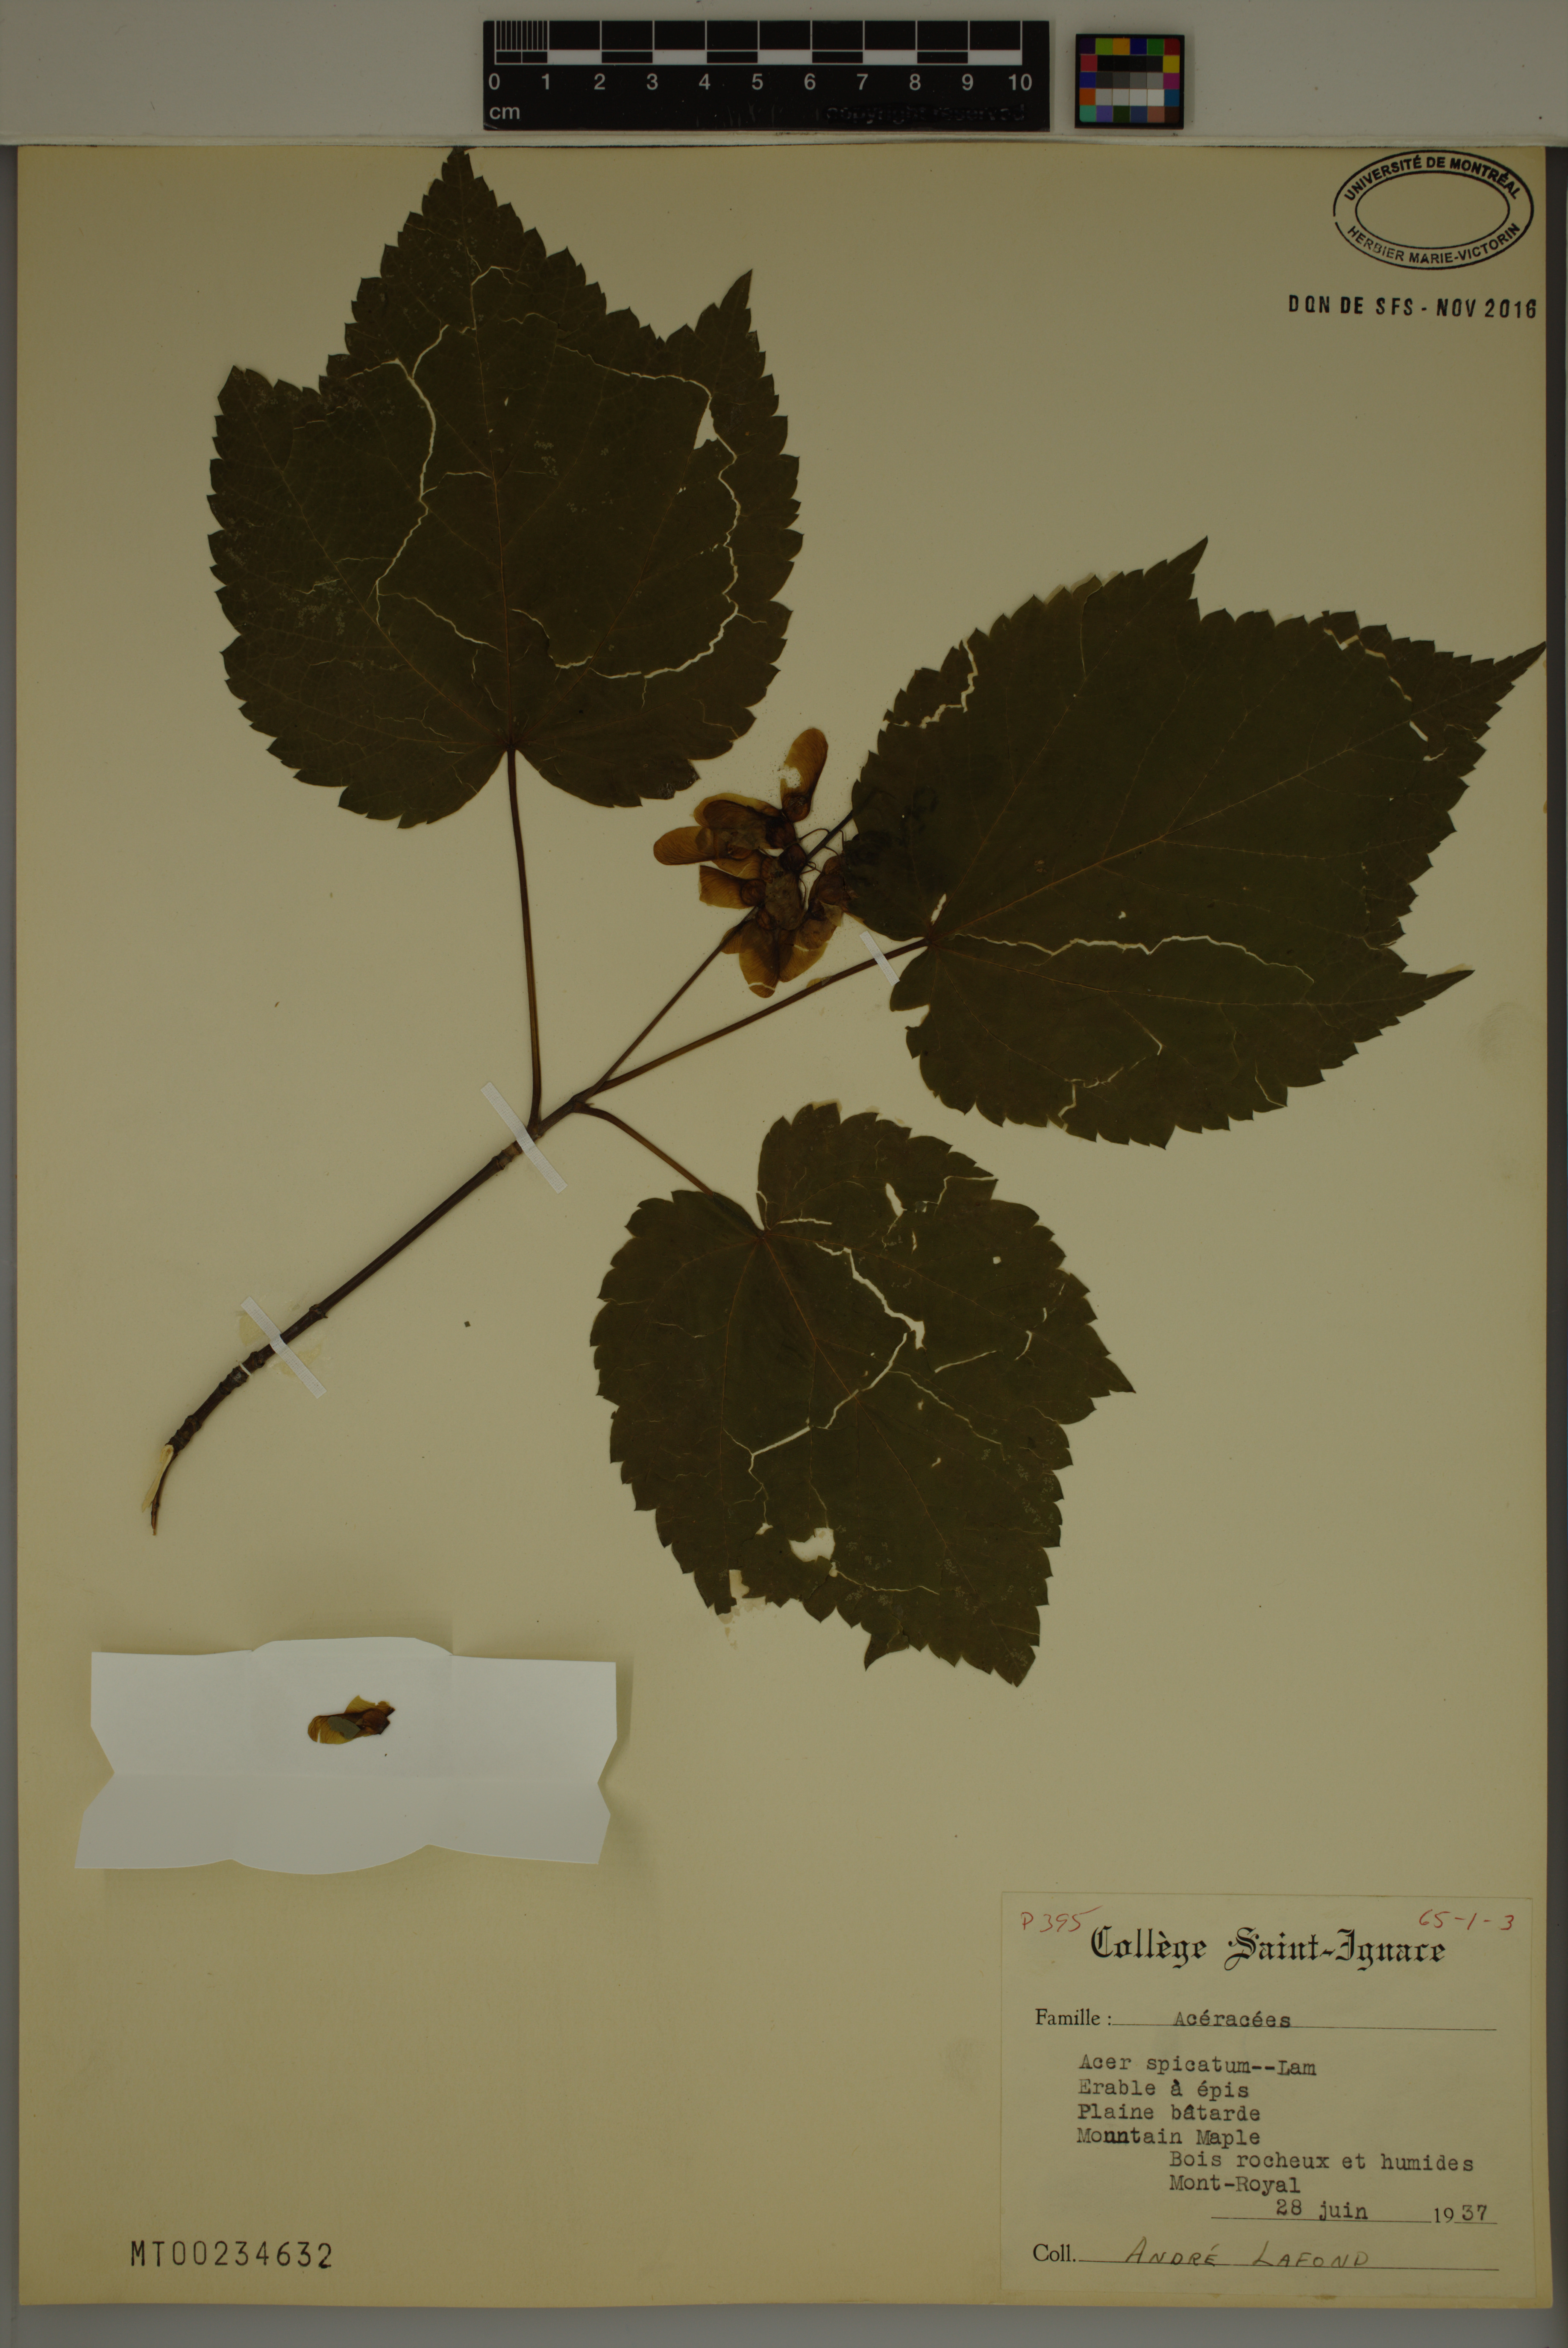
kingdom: Plantae
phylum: Tracheophyta
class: Magnoliopsida
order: Sapindales
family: Sapindaceae
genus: Acer
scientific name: Acer spicatum
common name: Mountain maple
